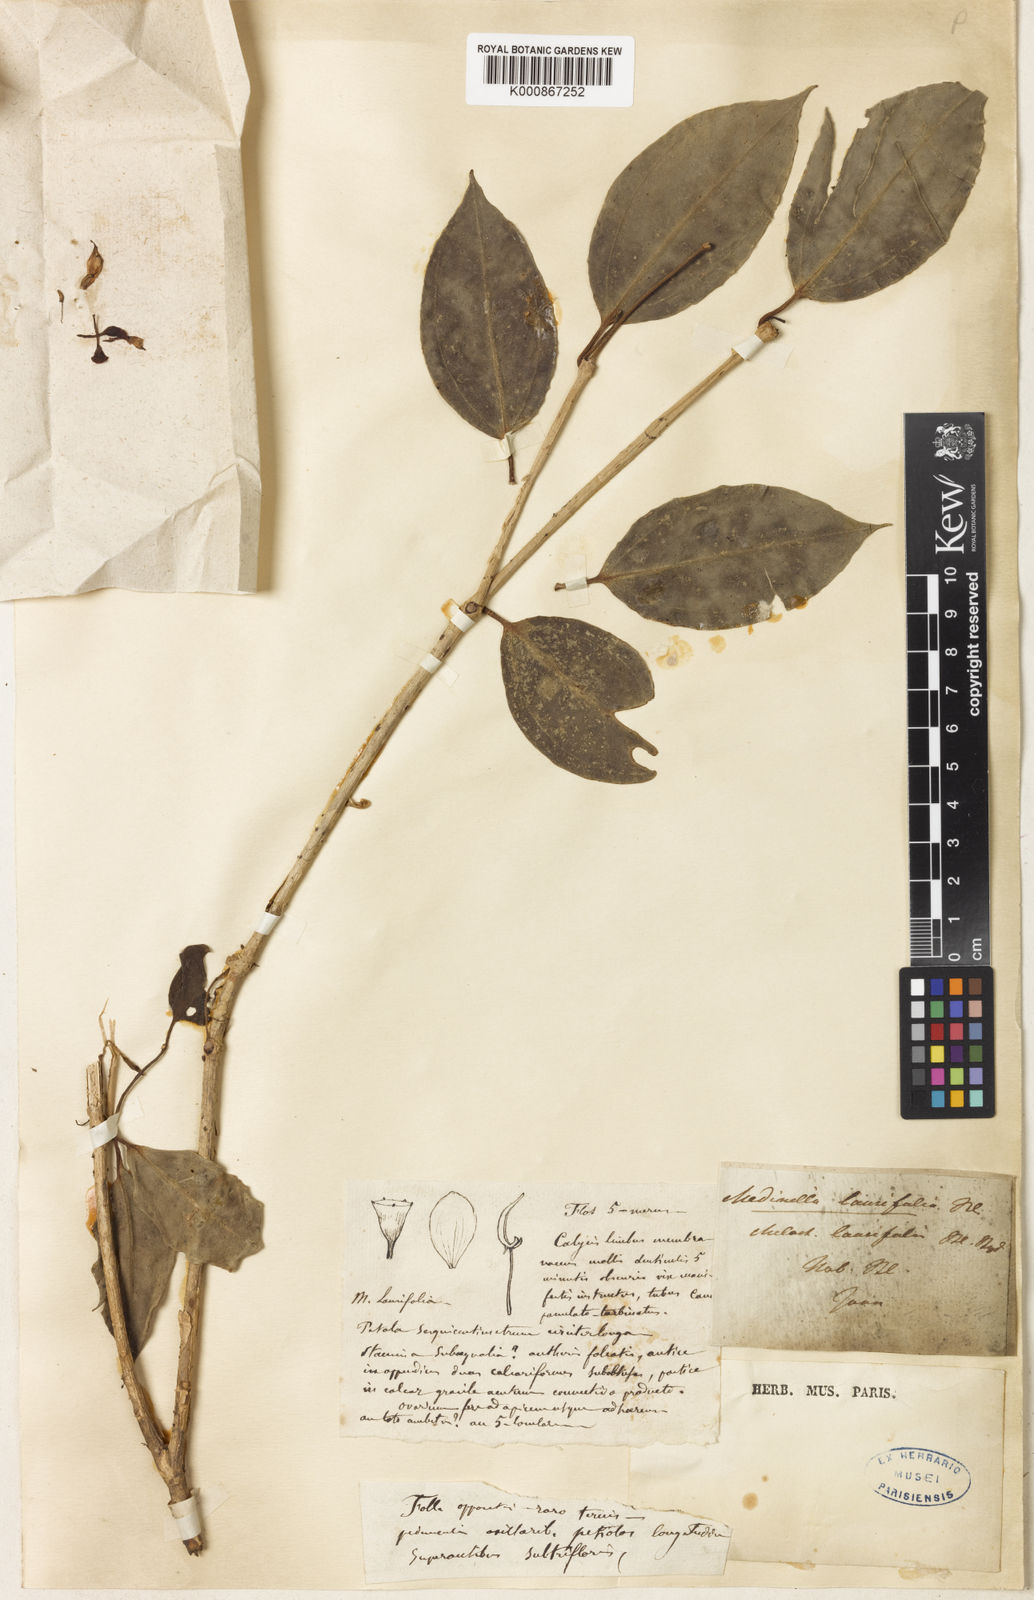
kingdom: Plantae
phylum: Tracheophyta
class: Magnoliopsida
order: Myrtales
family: Melastomataceae
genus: Medinilla
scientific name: Medinilla laurifolia
